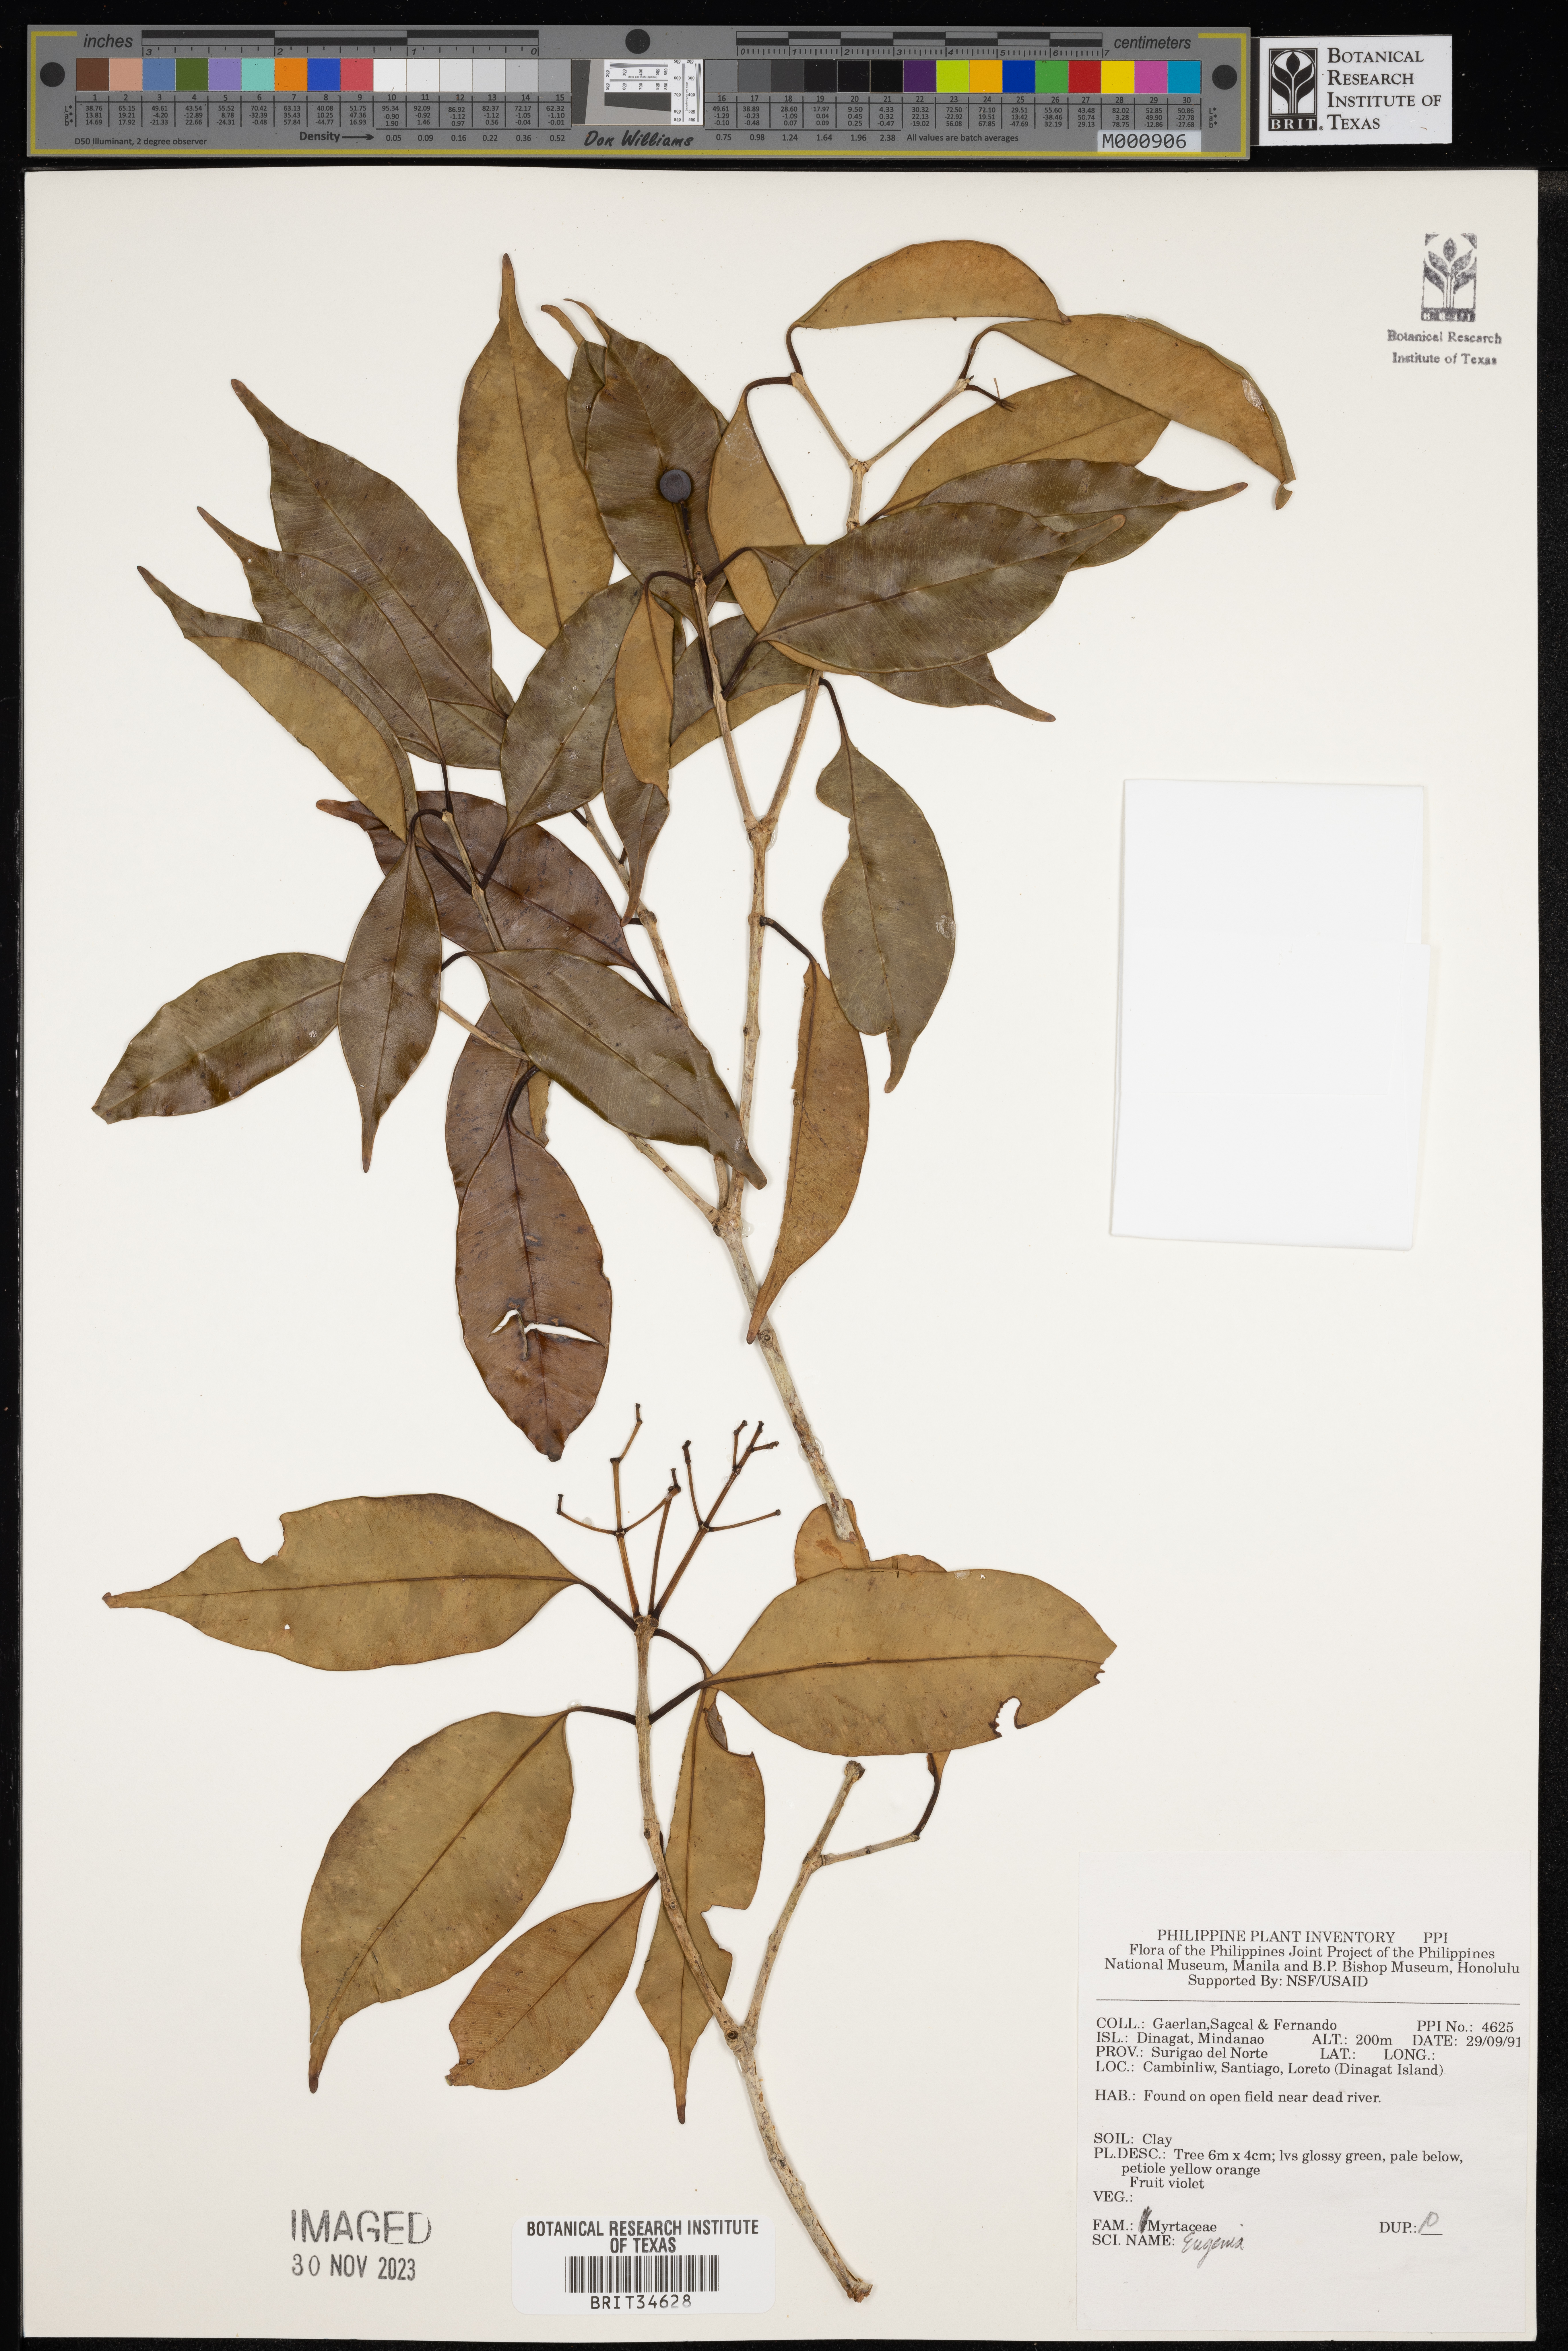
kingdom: Plantae
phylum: Tracheophyta
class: Magnoliopsida
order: Myrtales
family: Myrtaceae
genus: Eugenia
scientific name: Eugenia
